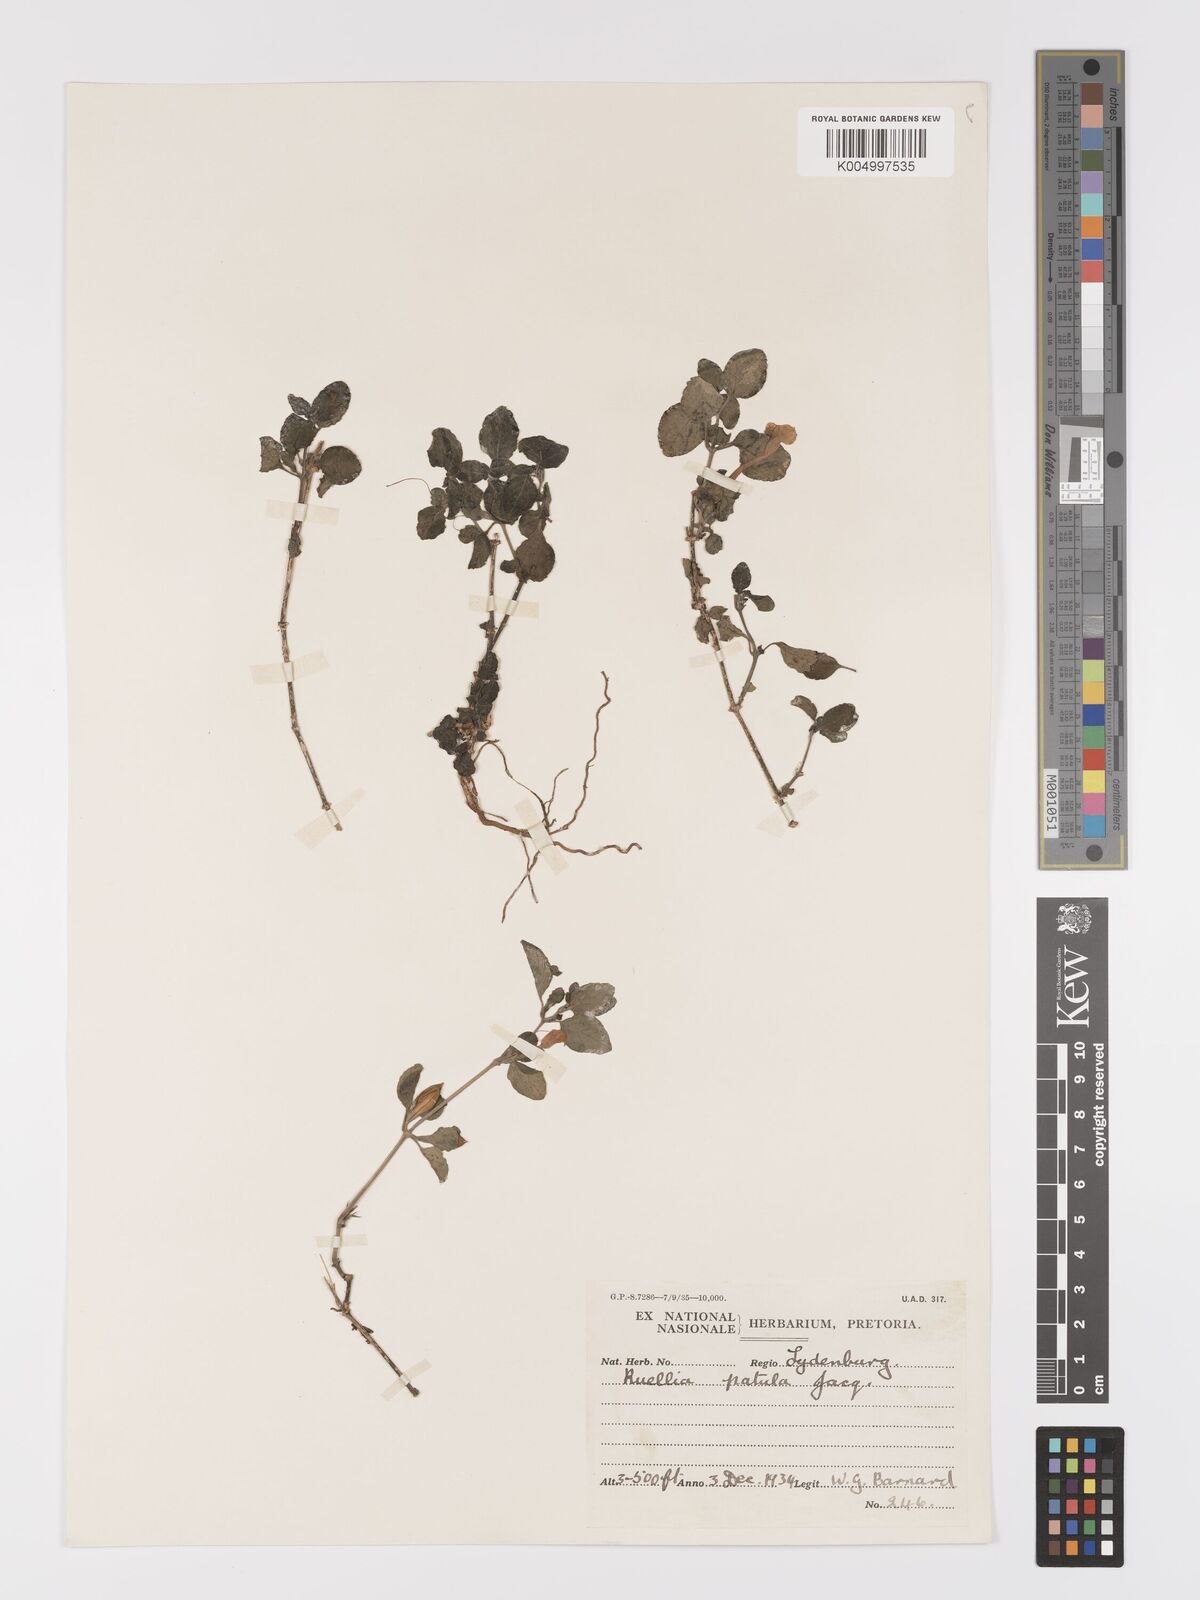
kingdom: Plantae
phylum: Tracheophyta
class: Magnoliopsida
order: Lamiales
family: Acanthaceae
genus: Ruellia
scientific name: Ruellia patula
